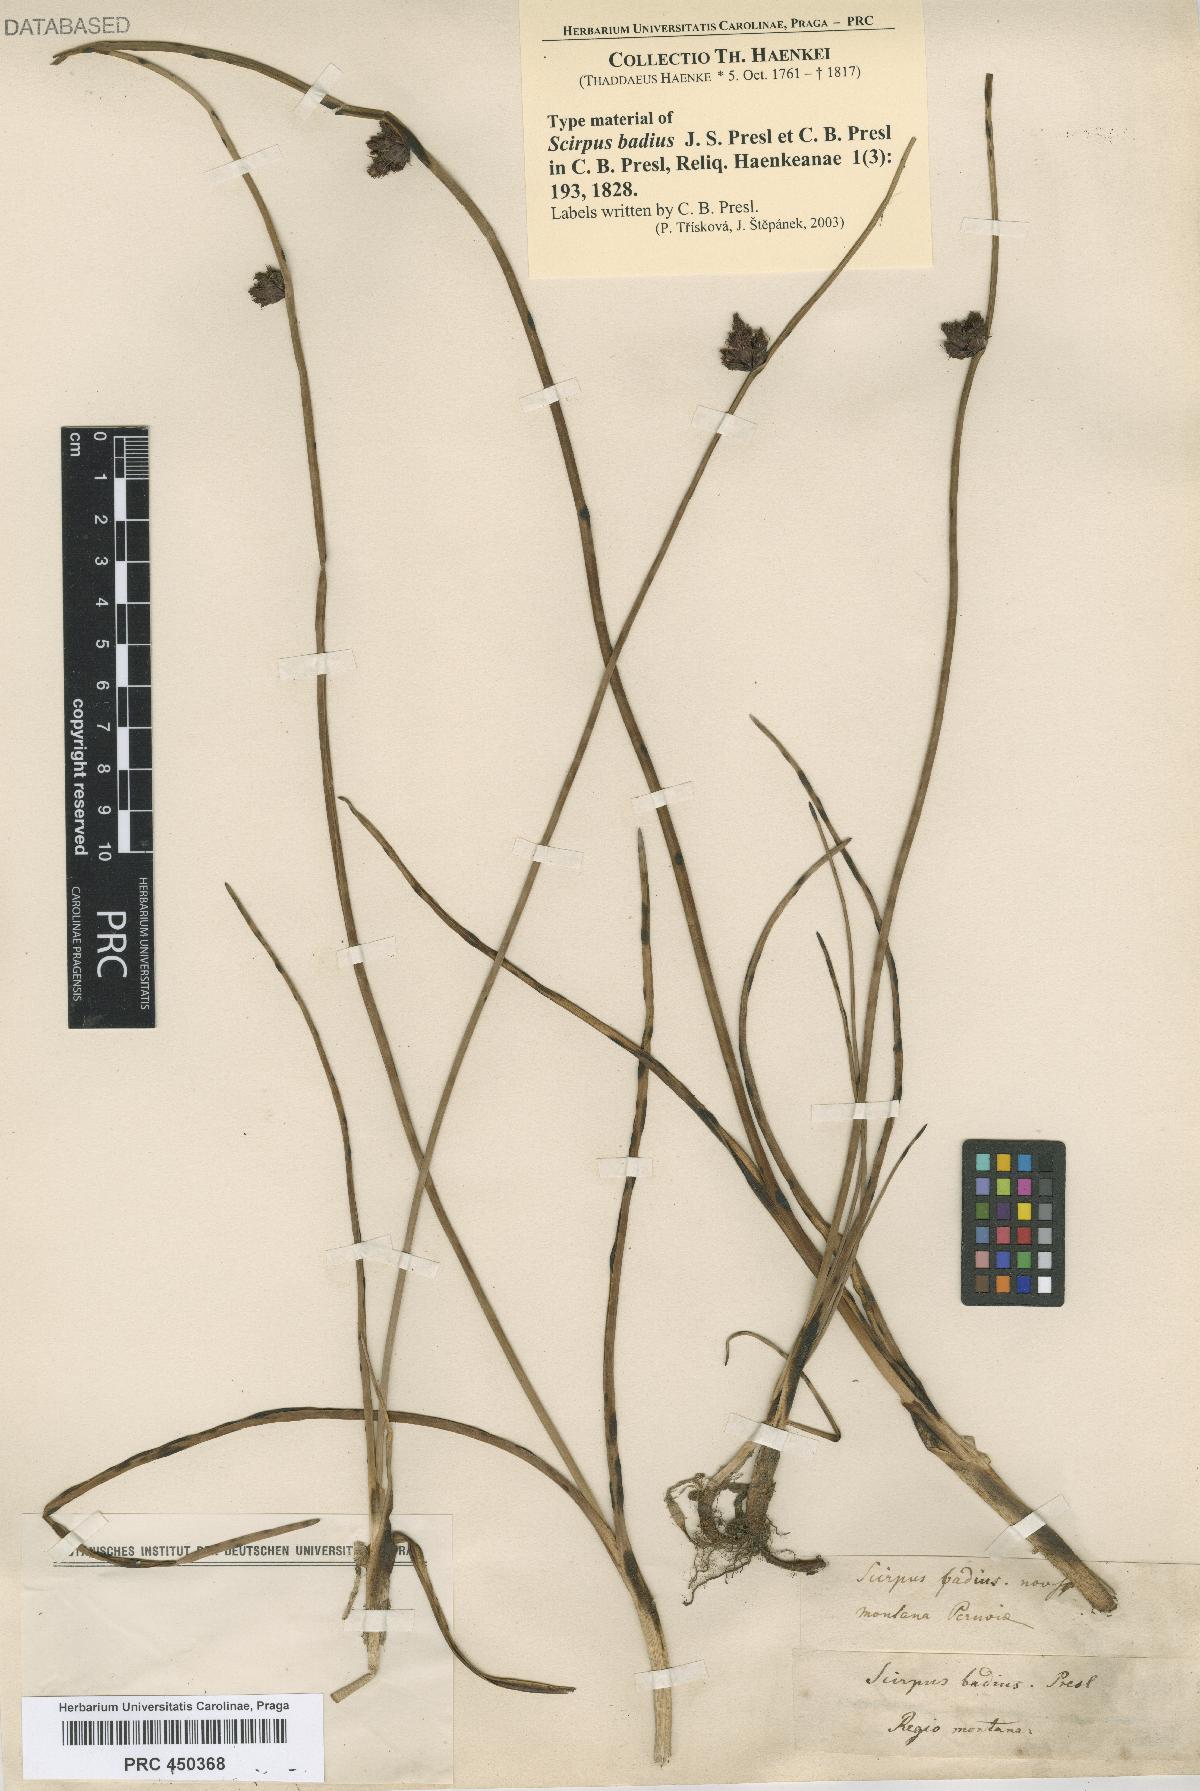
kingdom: Plantae
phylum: Tracheophyta
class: Liliopsida
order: Poales
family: Cyperaceae
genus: Schoenoplectus
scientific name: Schoenoplectus pungens
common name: Sharp club-rush
